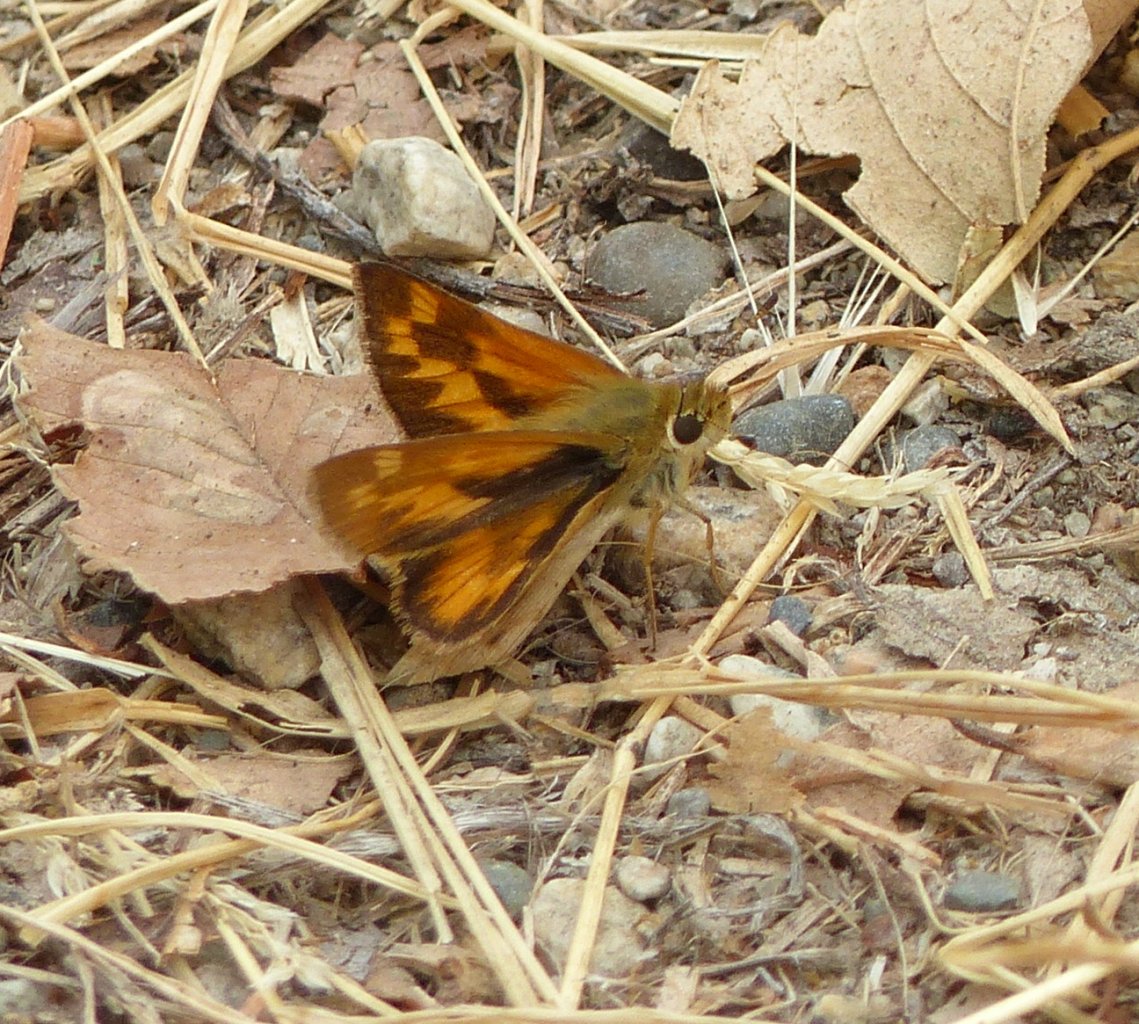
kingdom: Animalia
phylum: Arthropoda
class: Insecta
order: Lepidoptera
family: Hesperiidae
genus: Ochlodes
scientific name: Ochlodes sylvanoides
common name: Woodland Skipper
